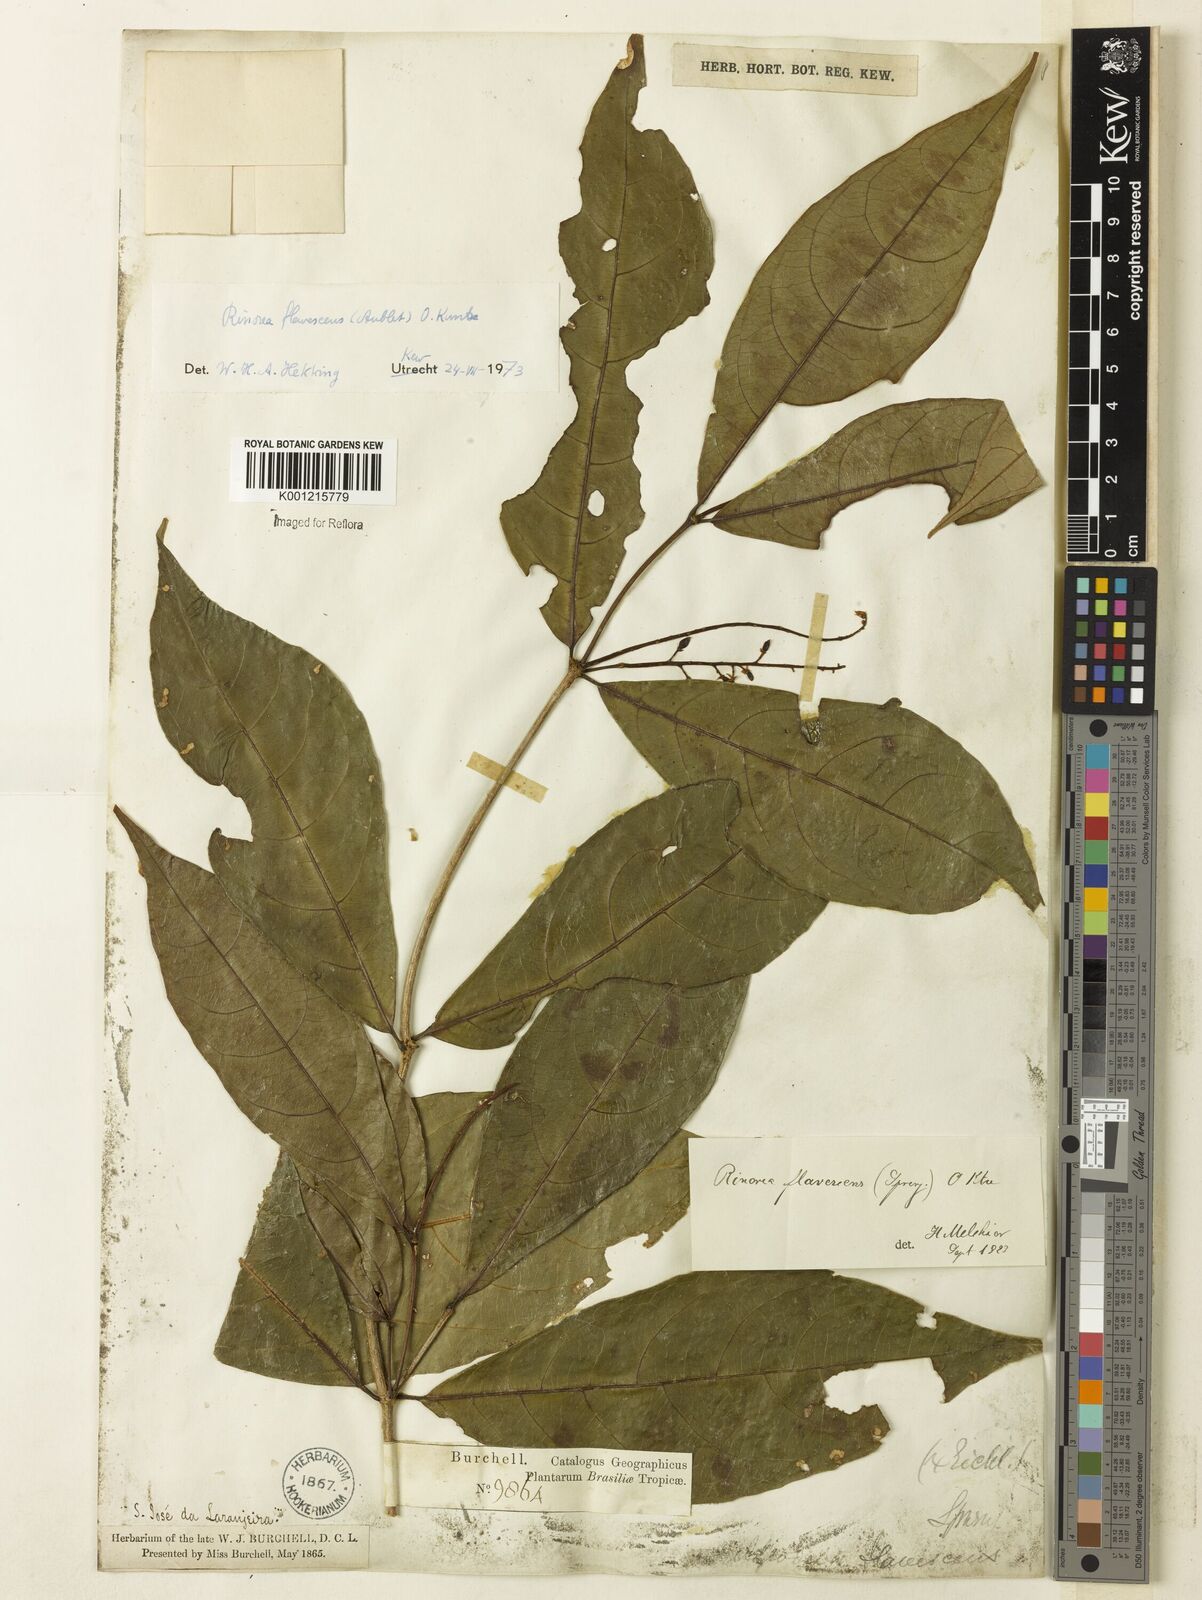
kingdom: Plantae
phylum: Tracheophyta
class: Magnoliopsida
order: Malpighiales
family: Violaceae
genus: Rinorea
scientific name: Rinorea flavescens
